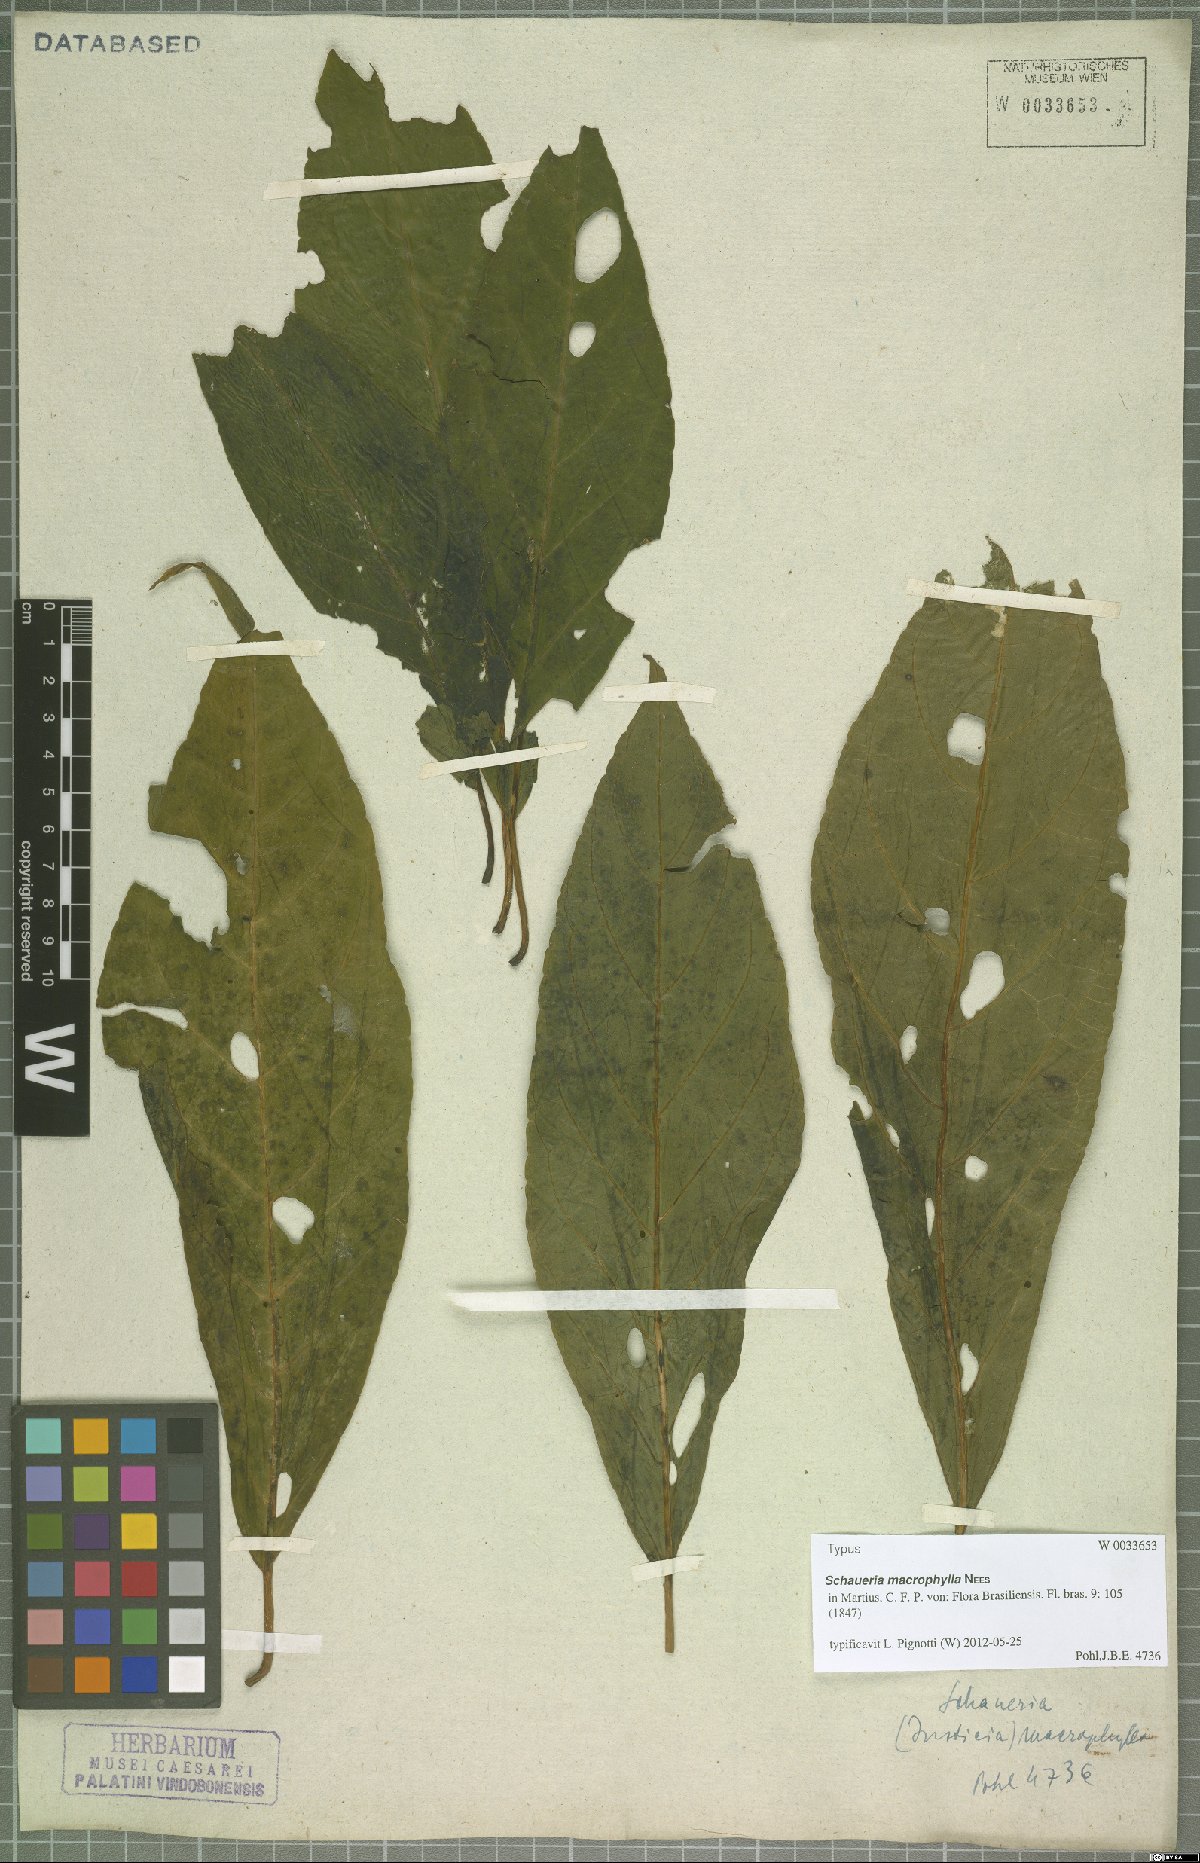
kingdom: Plantae
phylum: Tracheophyta
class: Magnoliopsida
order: Lamiales
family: Acanthaceae
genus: Schaueria
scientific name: Schaueria macrophylla
